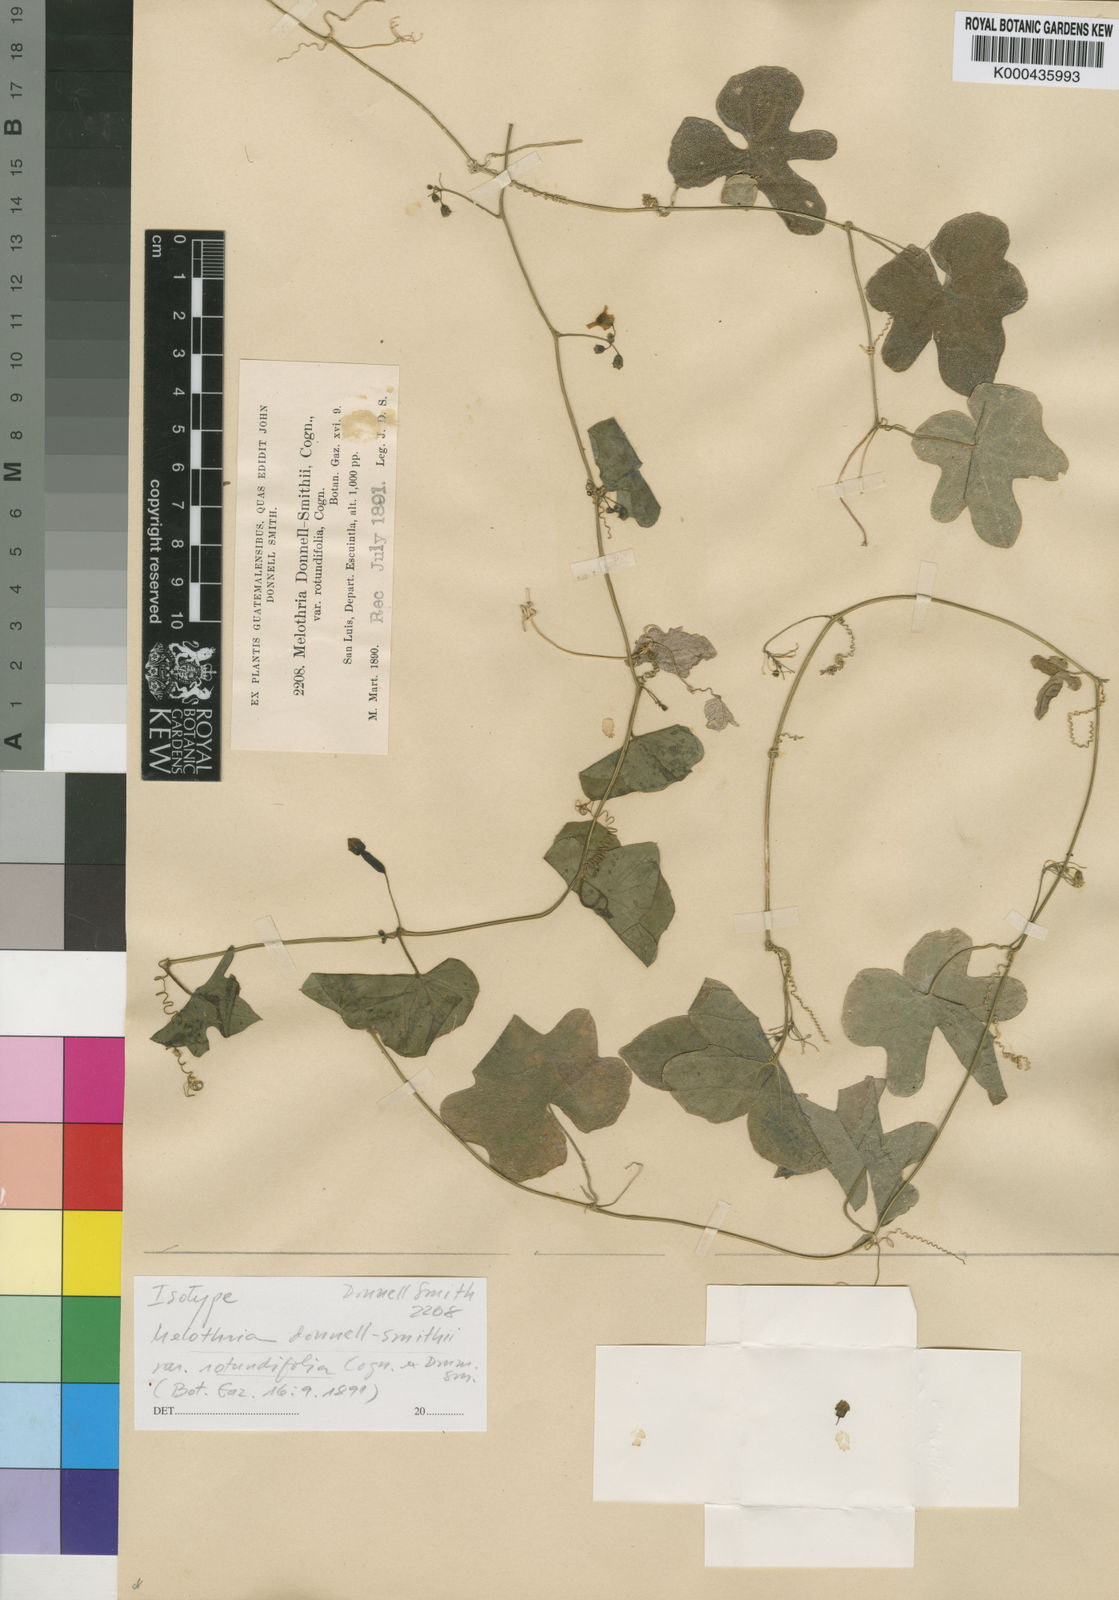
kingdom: Plantae
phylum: Tracheophyta
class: Magnoliopsida
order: Cucurbitales
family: Cucurbitaceae
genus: Melothria
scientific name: Melothria scabra
